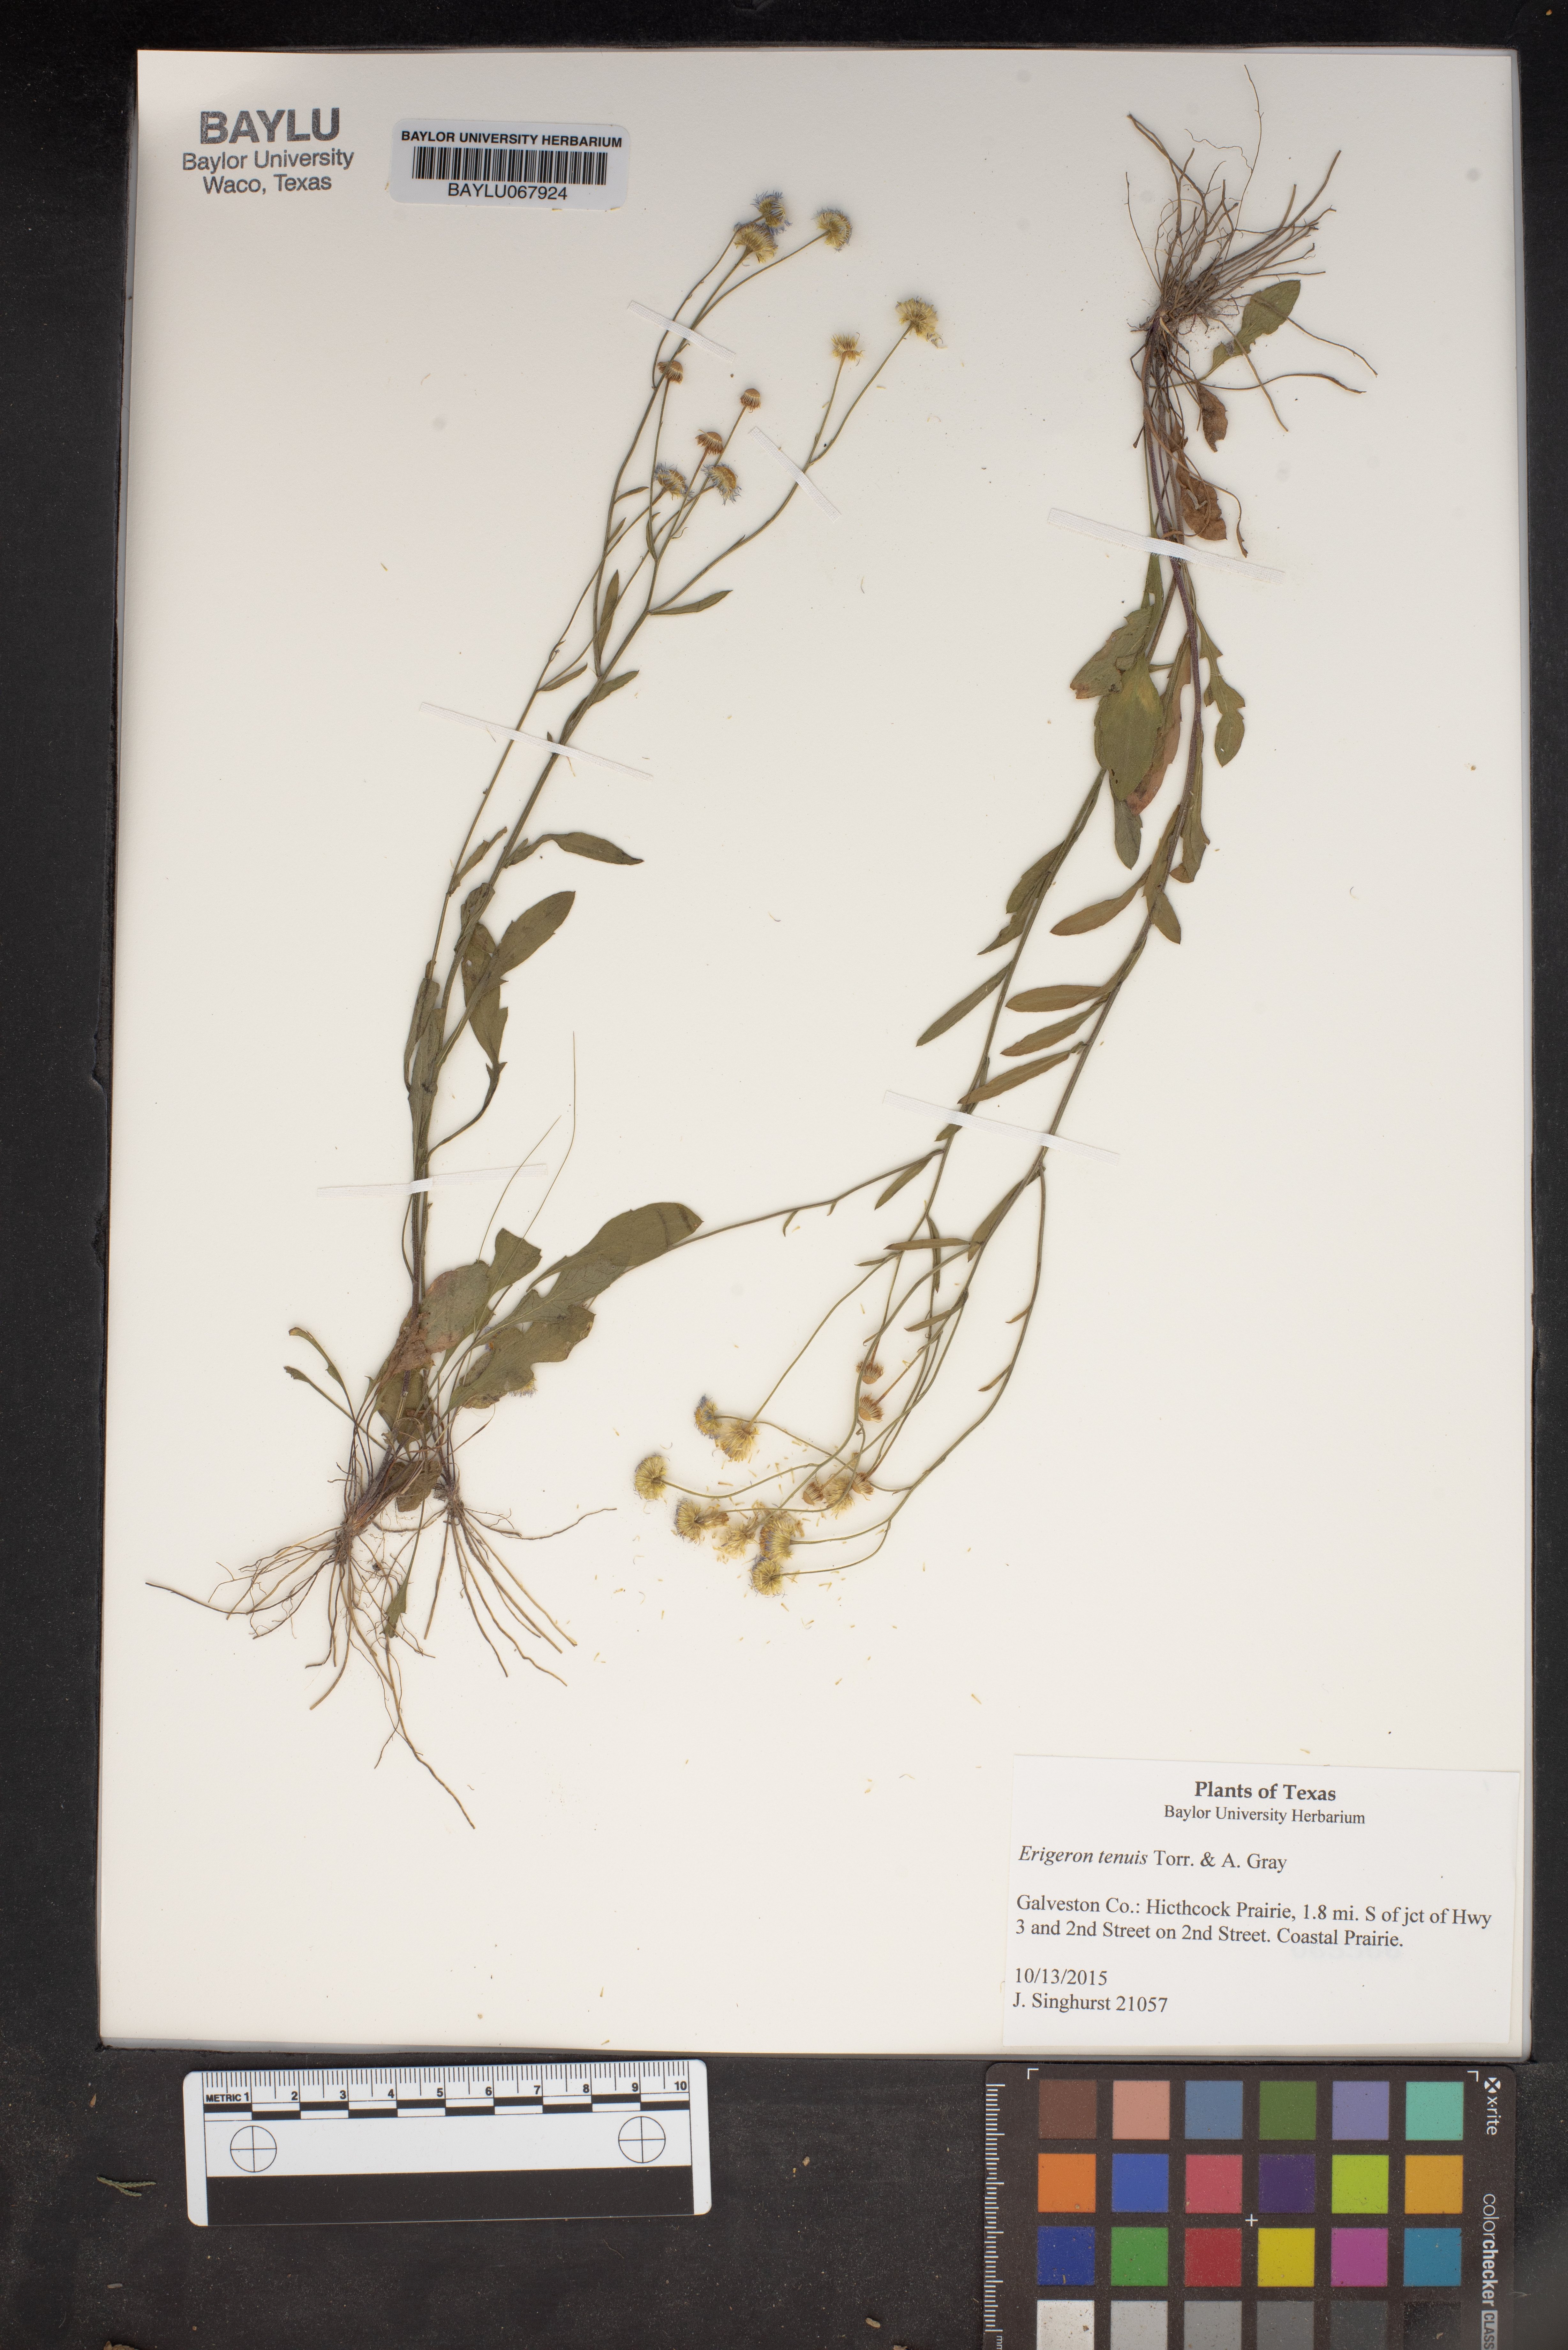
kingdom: Plantae
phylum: Tracheophyta
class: Magnoliopsida
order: Asterales
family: Asteraceae
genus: Erigeron
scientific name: Erigeron tenuis
